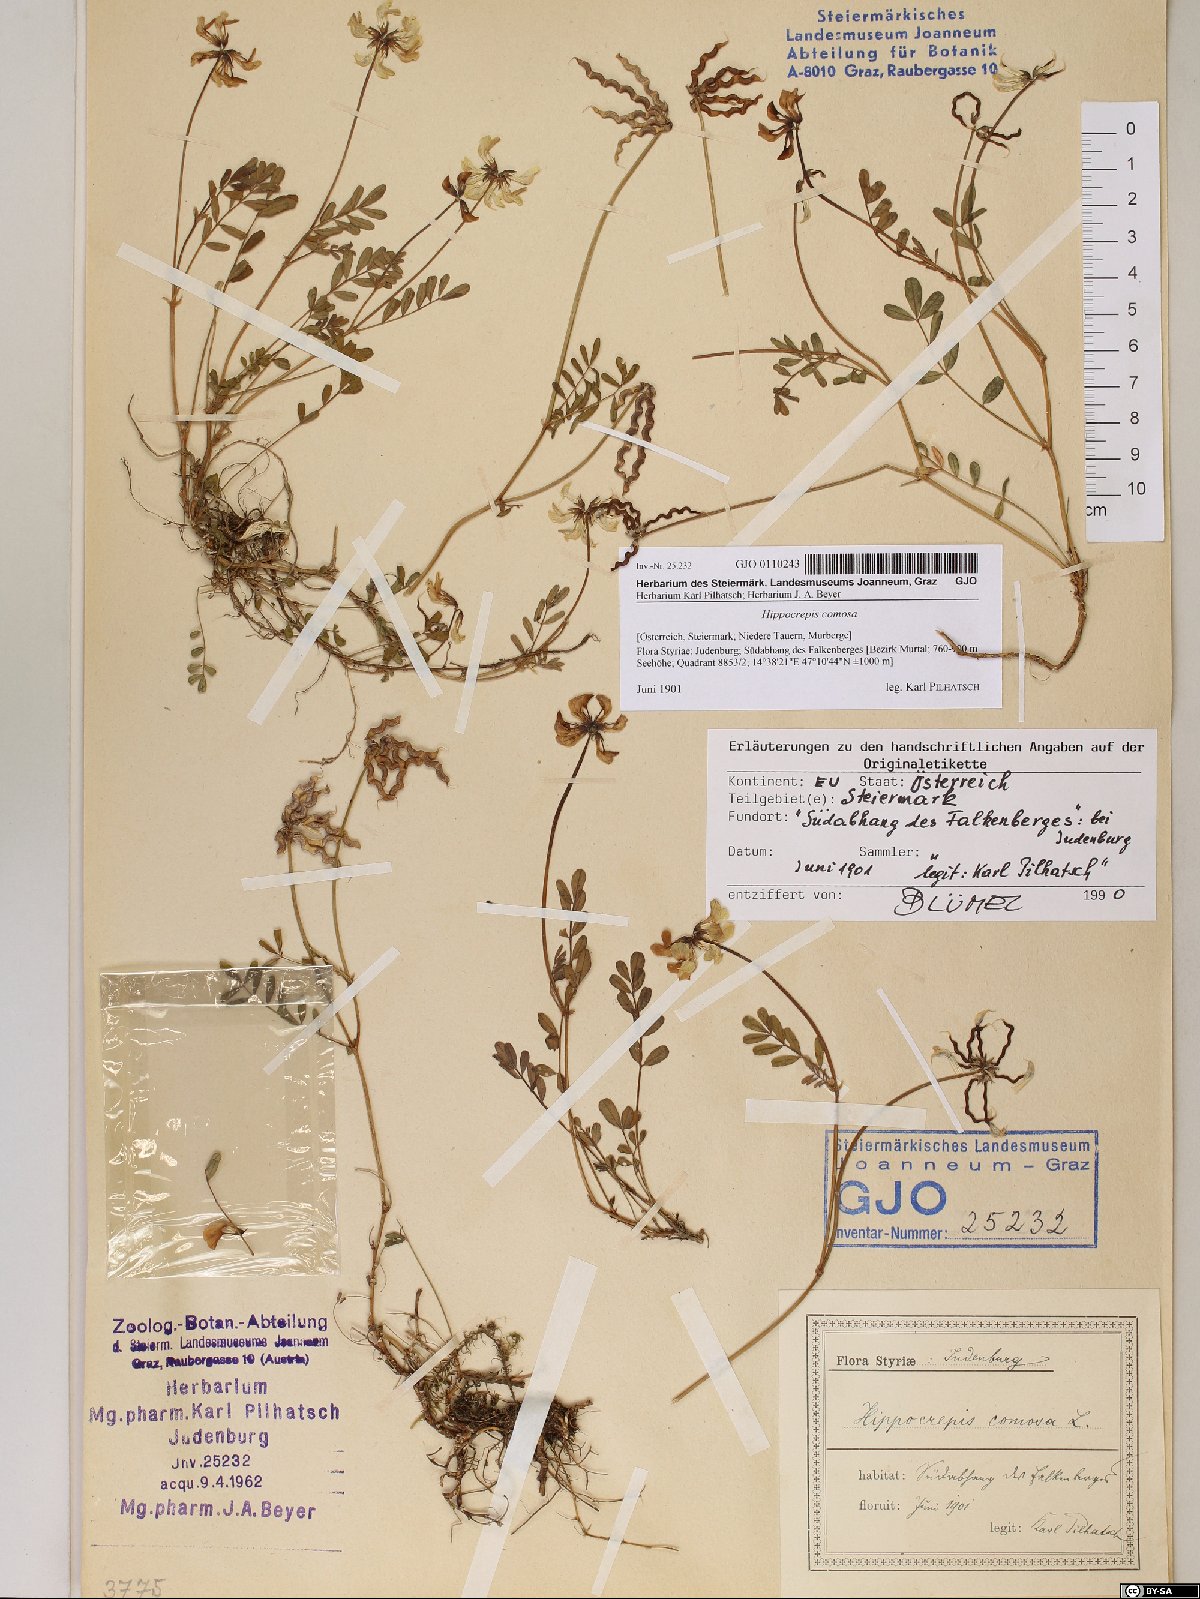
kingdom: Plantae
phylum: Tracheophyta
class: Magnoliopsida
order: Fabales
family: Fabaceae
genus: Hippocrepis
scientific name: Hippocrepis comosa
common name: Horseshoe vetch
